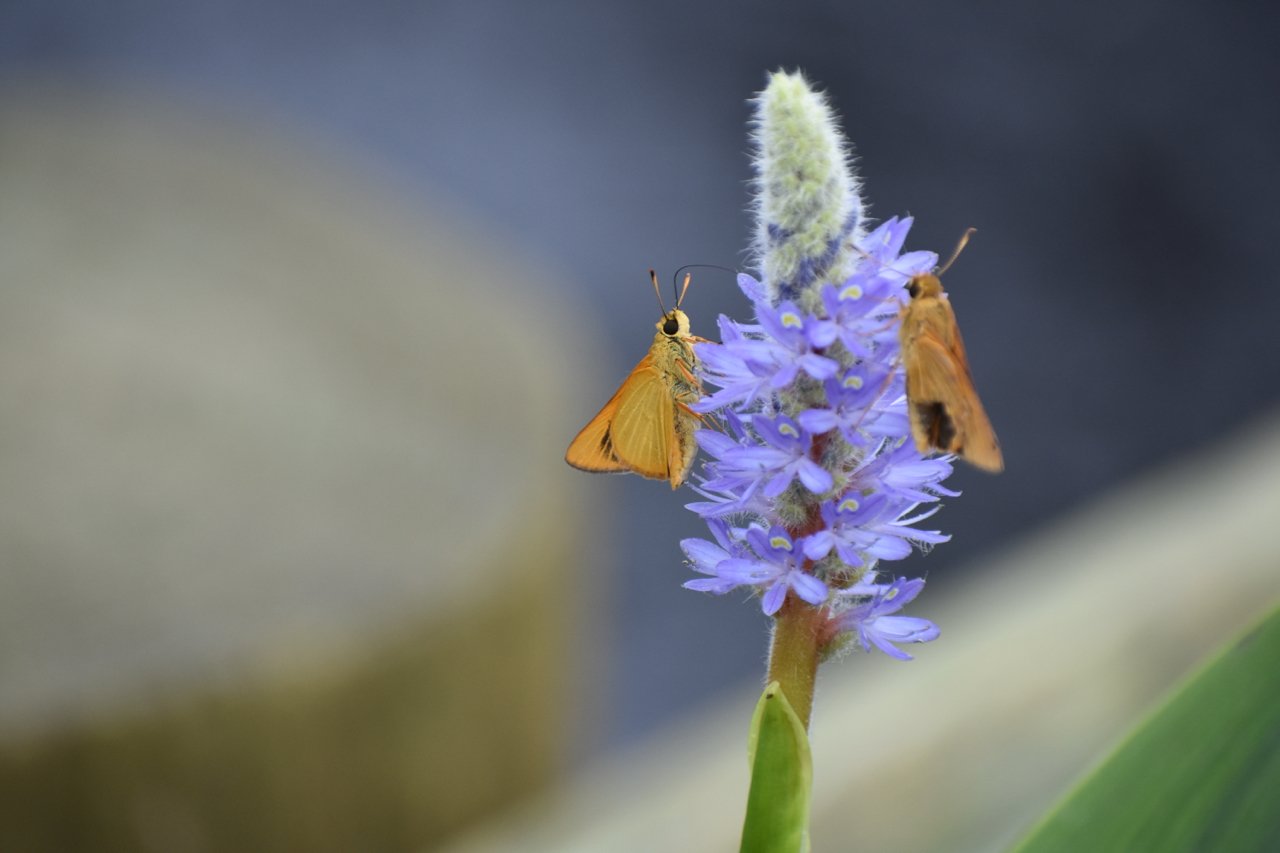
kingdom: Animalia
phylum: Arthropoda
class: Insecta
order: Lepidoptera
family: Hesperiidae
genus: Problema
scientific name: Problema bulenta
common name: Rare Skipper
